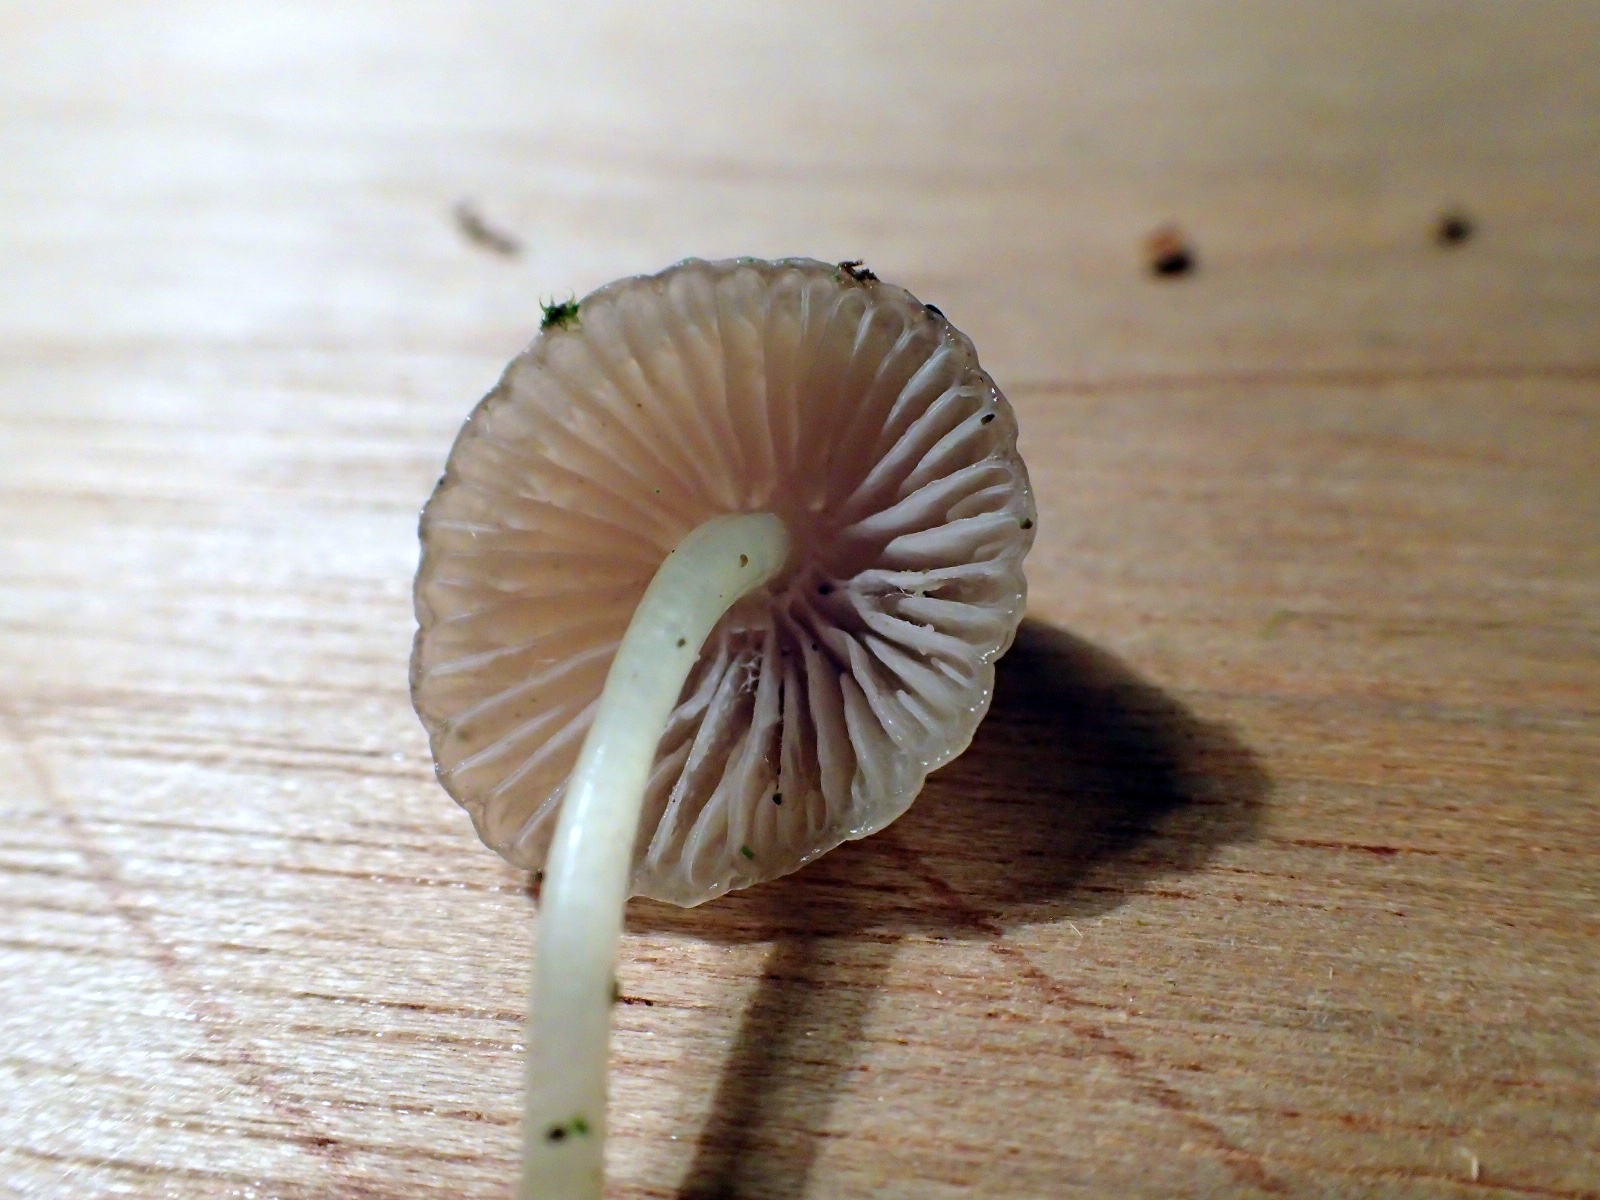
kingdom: Fungi
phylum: Basidiomycota
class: Agaricomycetes
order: Agaricales
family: Mycenaceae
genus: Mycena
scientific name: Mycena epipterygia
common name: gulstokket huesvamp
